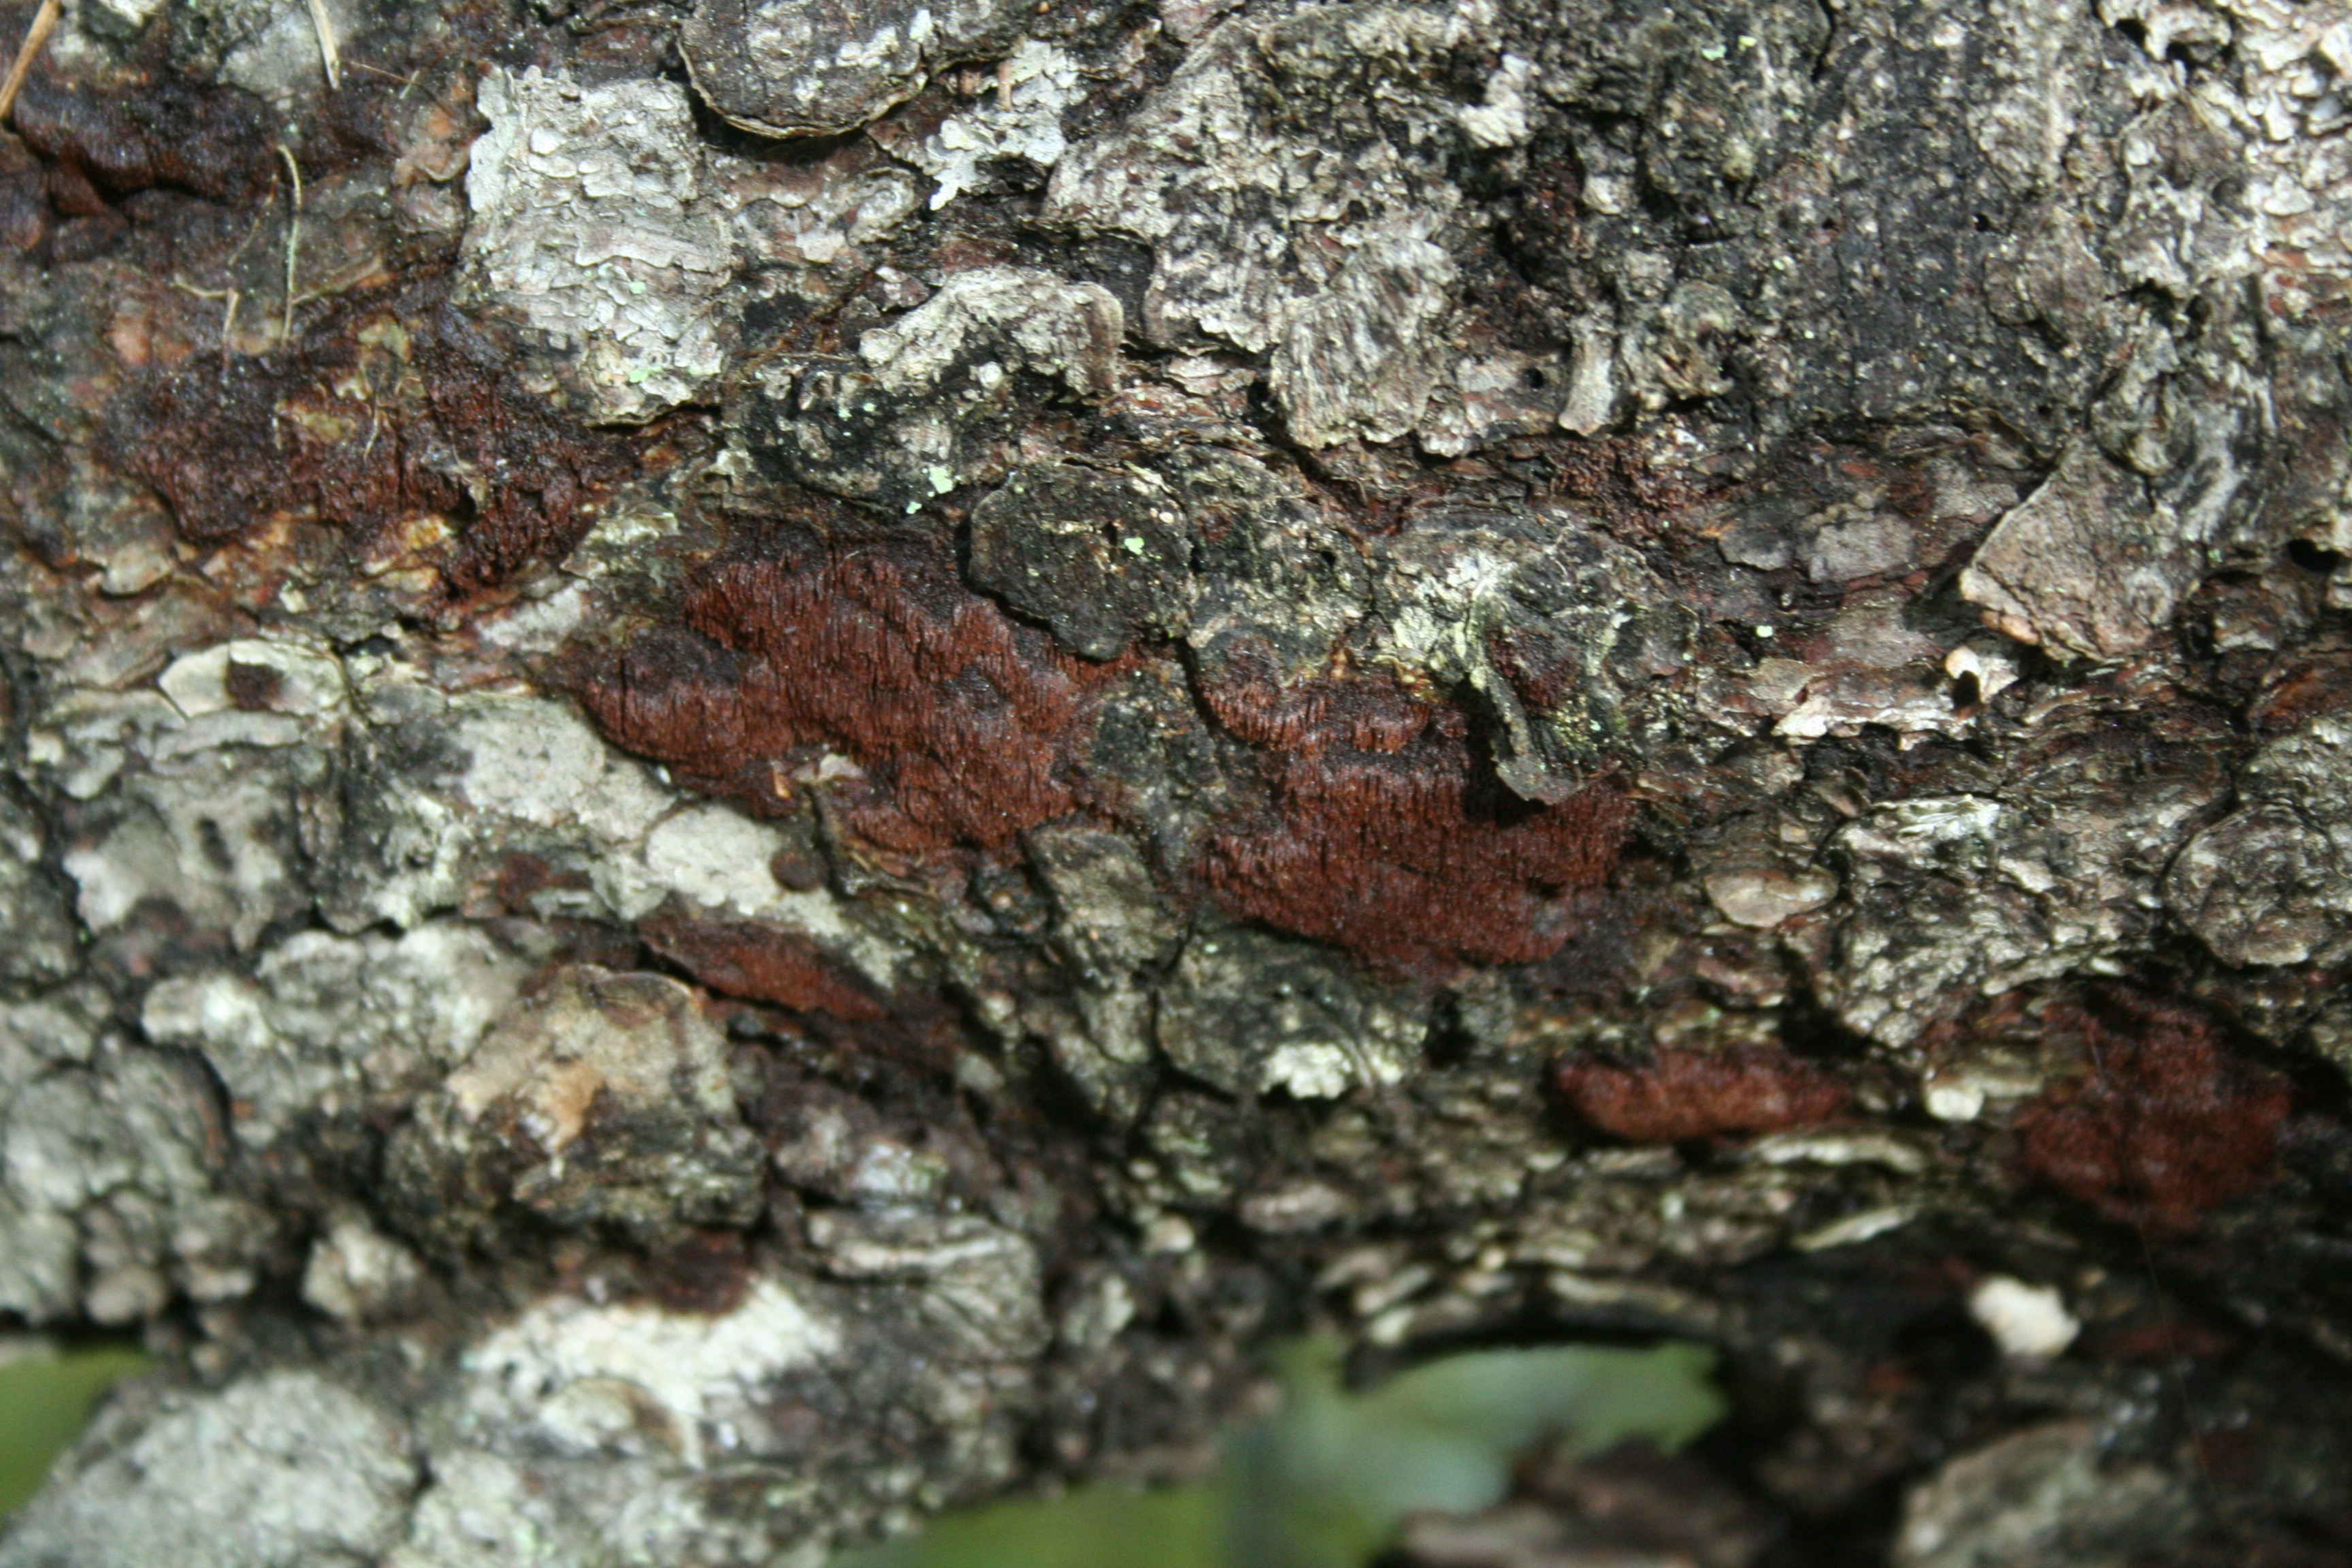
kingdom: Fungi
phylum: Basidiomycota
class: Agaricomycetes
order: Hymenochaetales
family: Hymenochaetaceae
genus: Phellinidium
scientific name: Phellinidium ferrugineofuscum
